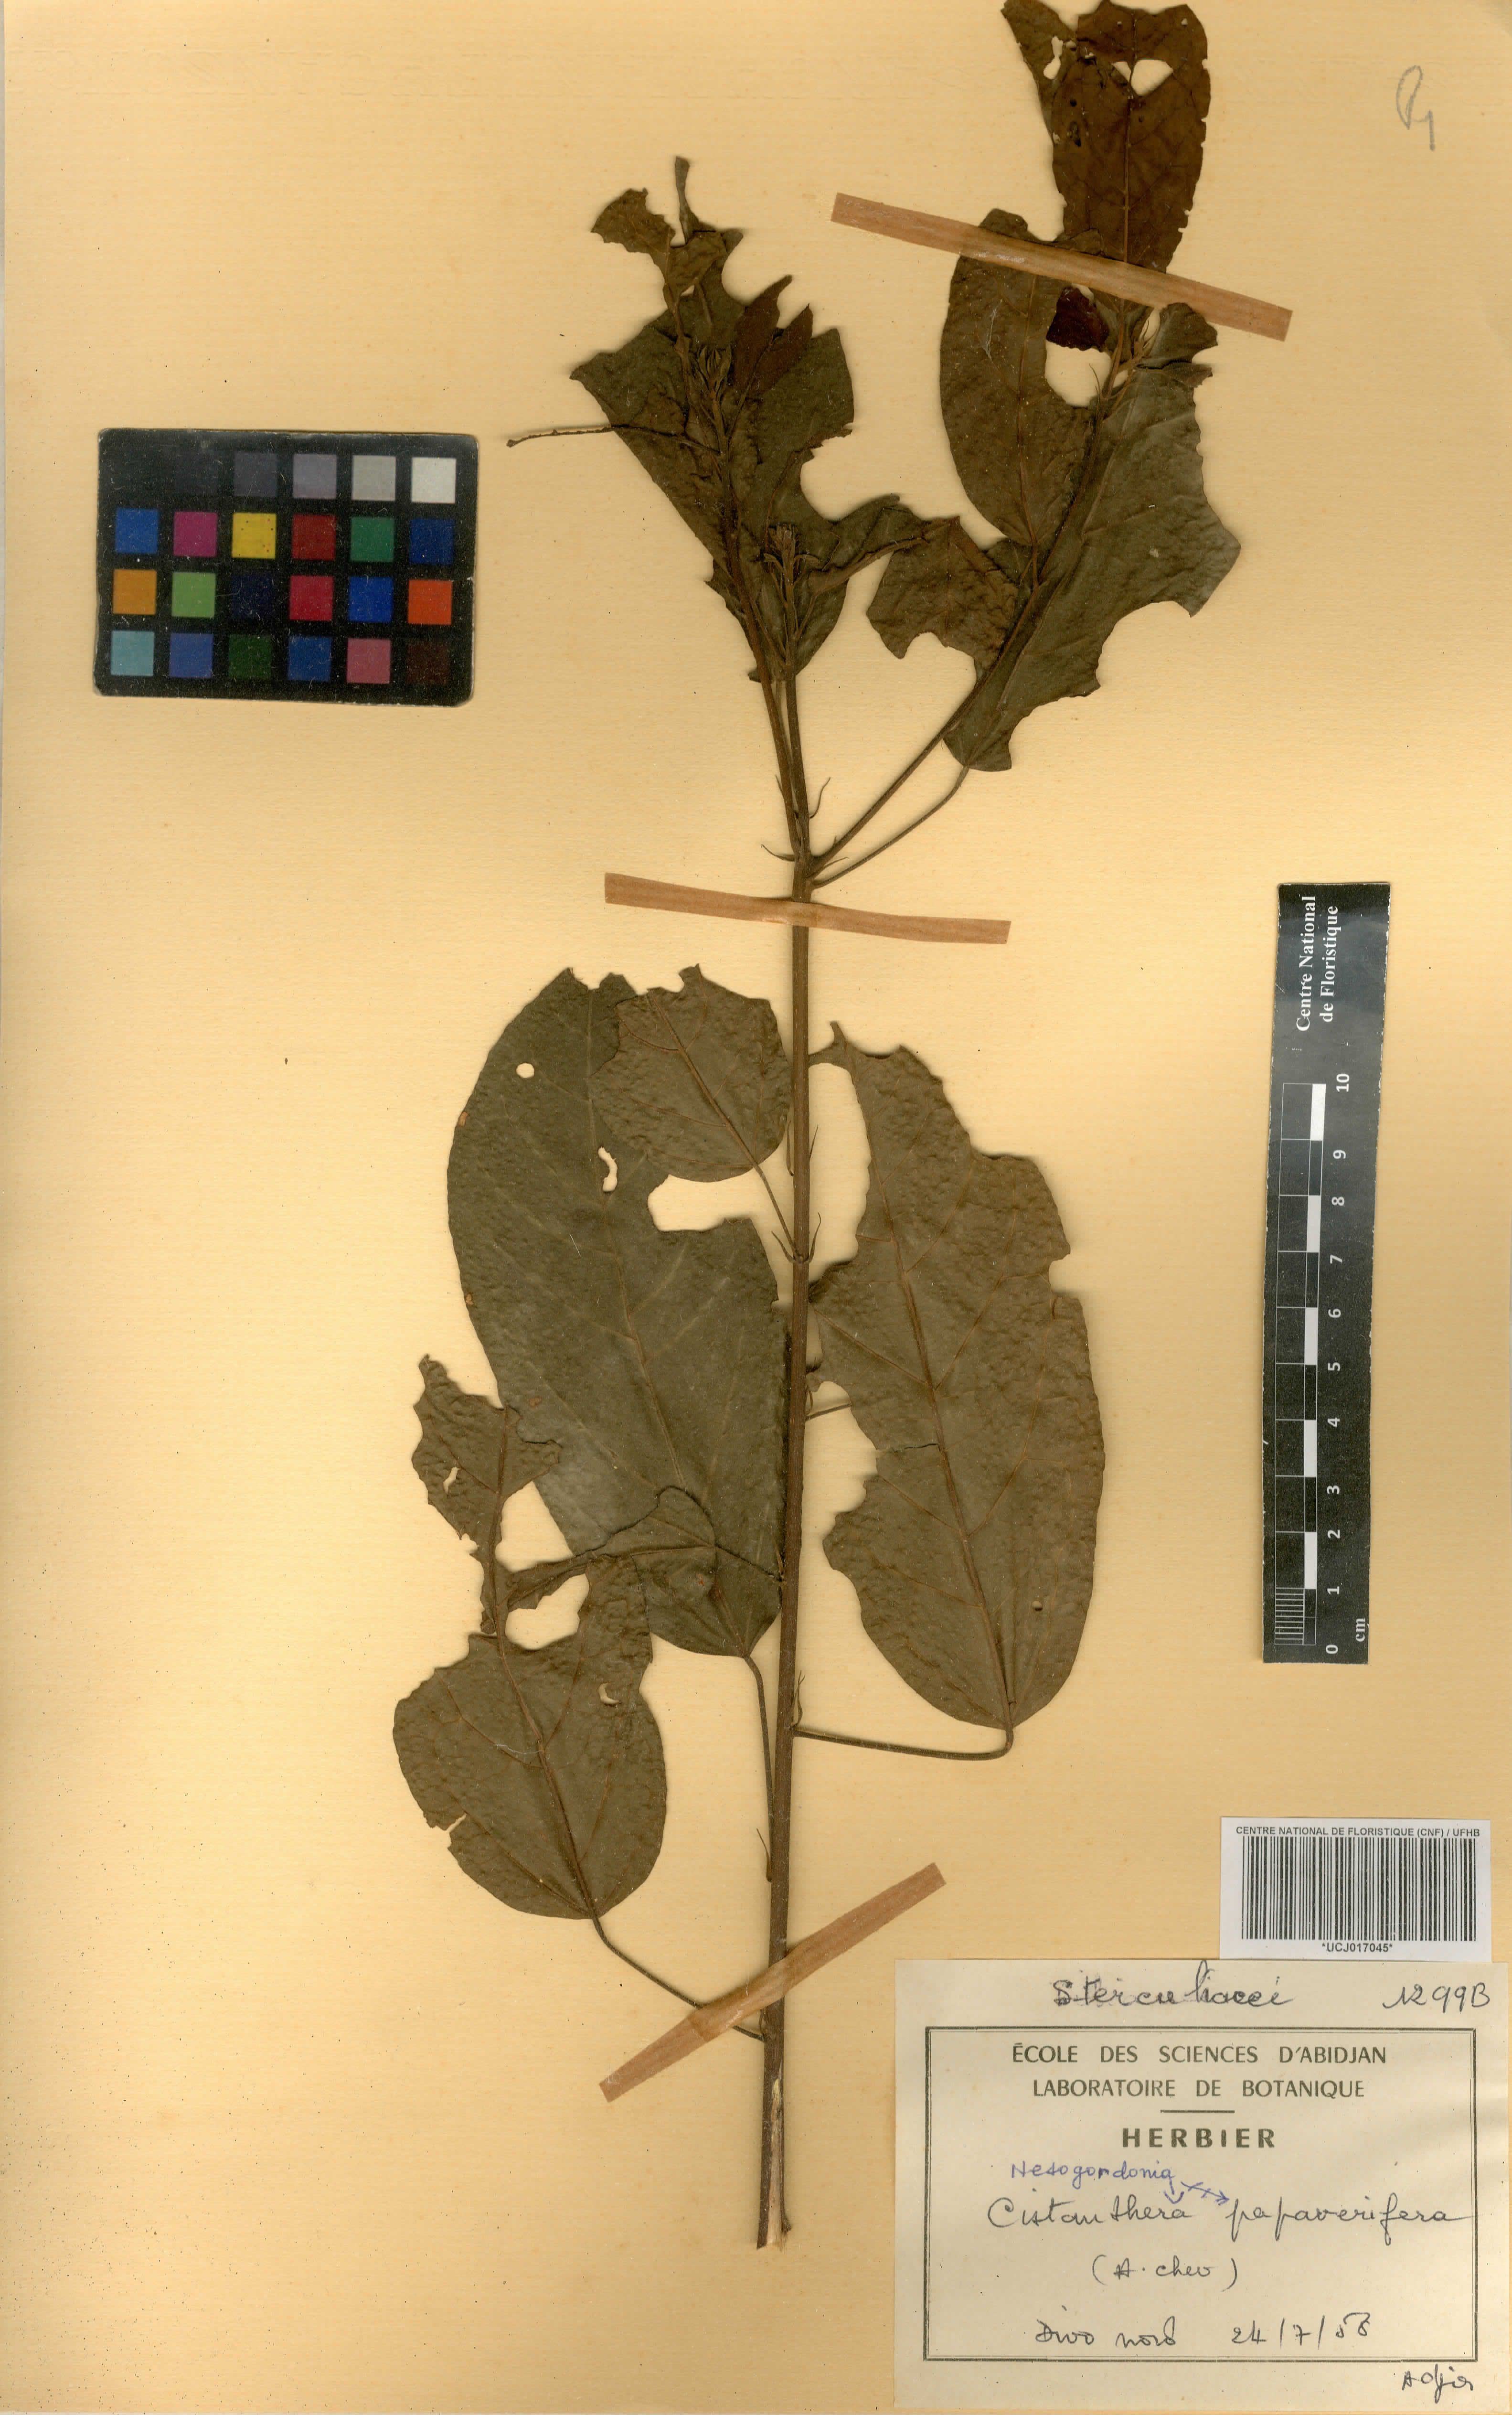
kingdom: Plantae
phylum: Tracheophyta
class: Magnoliopsida
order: Malvales
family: Malvaceae
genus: Nesogordonia
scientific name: Nesogordonia papaverifera
